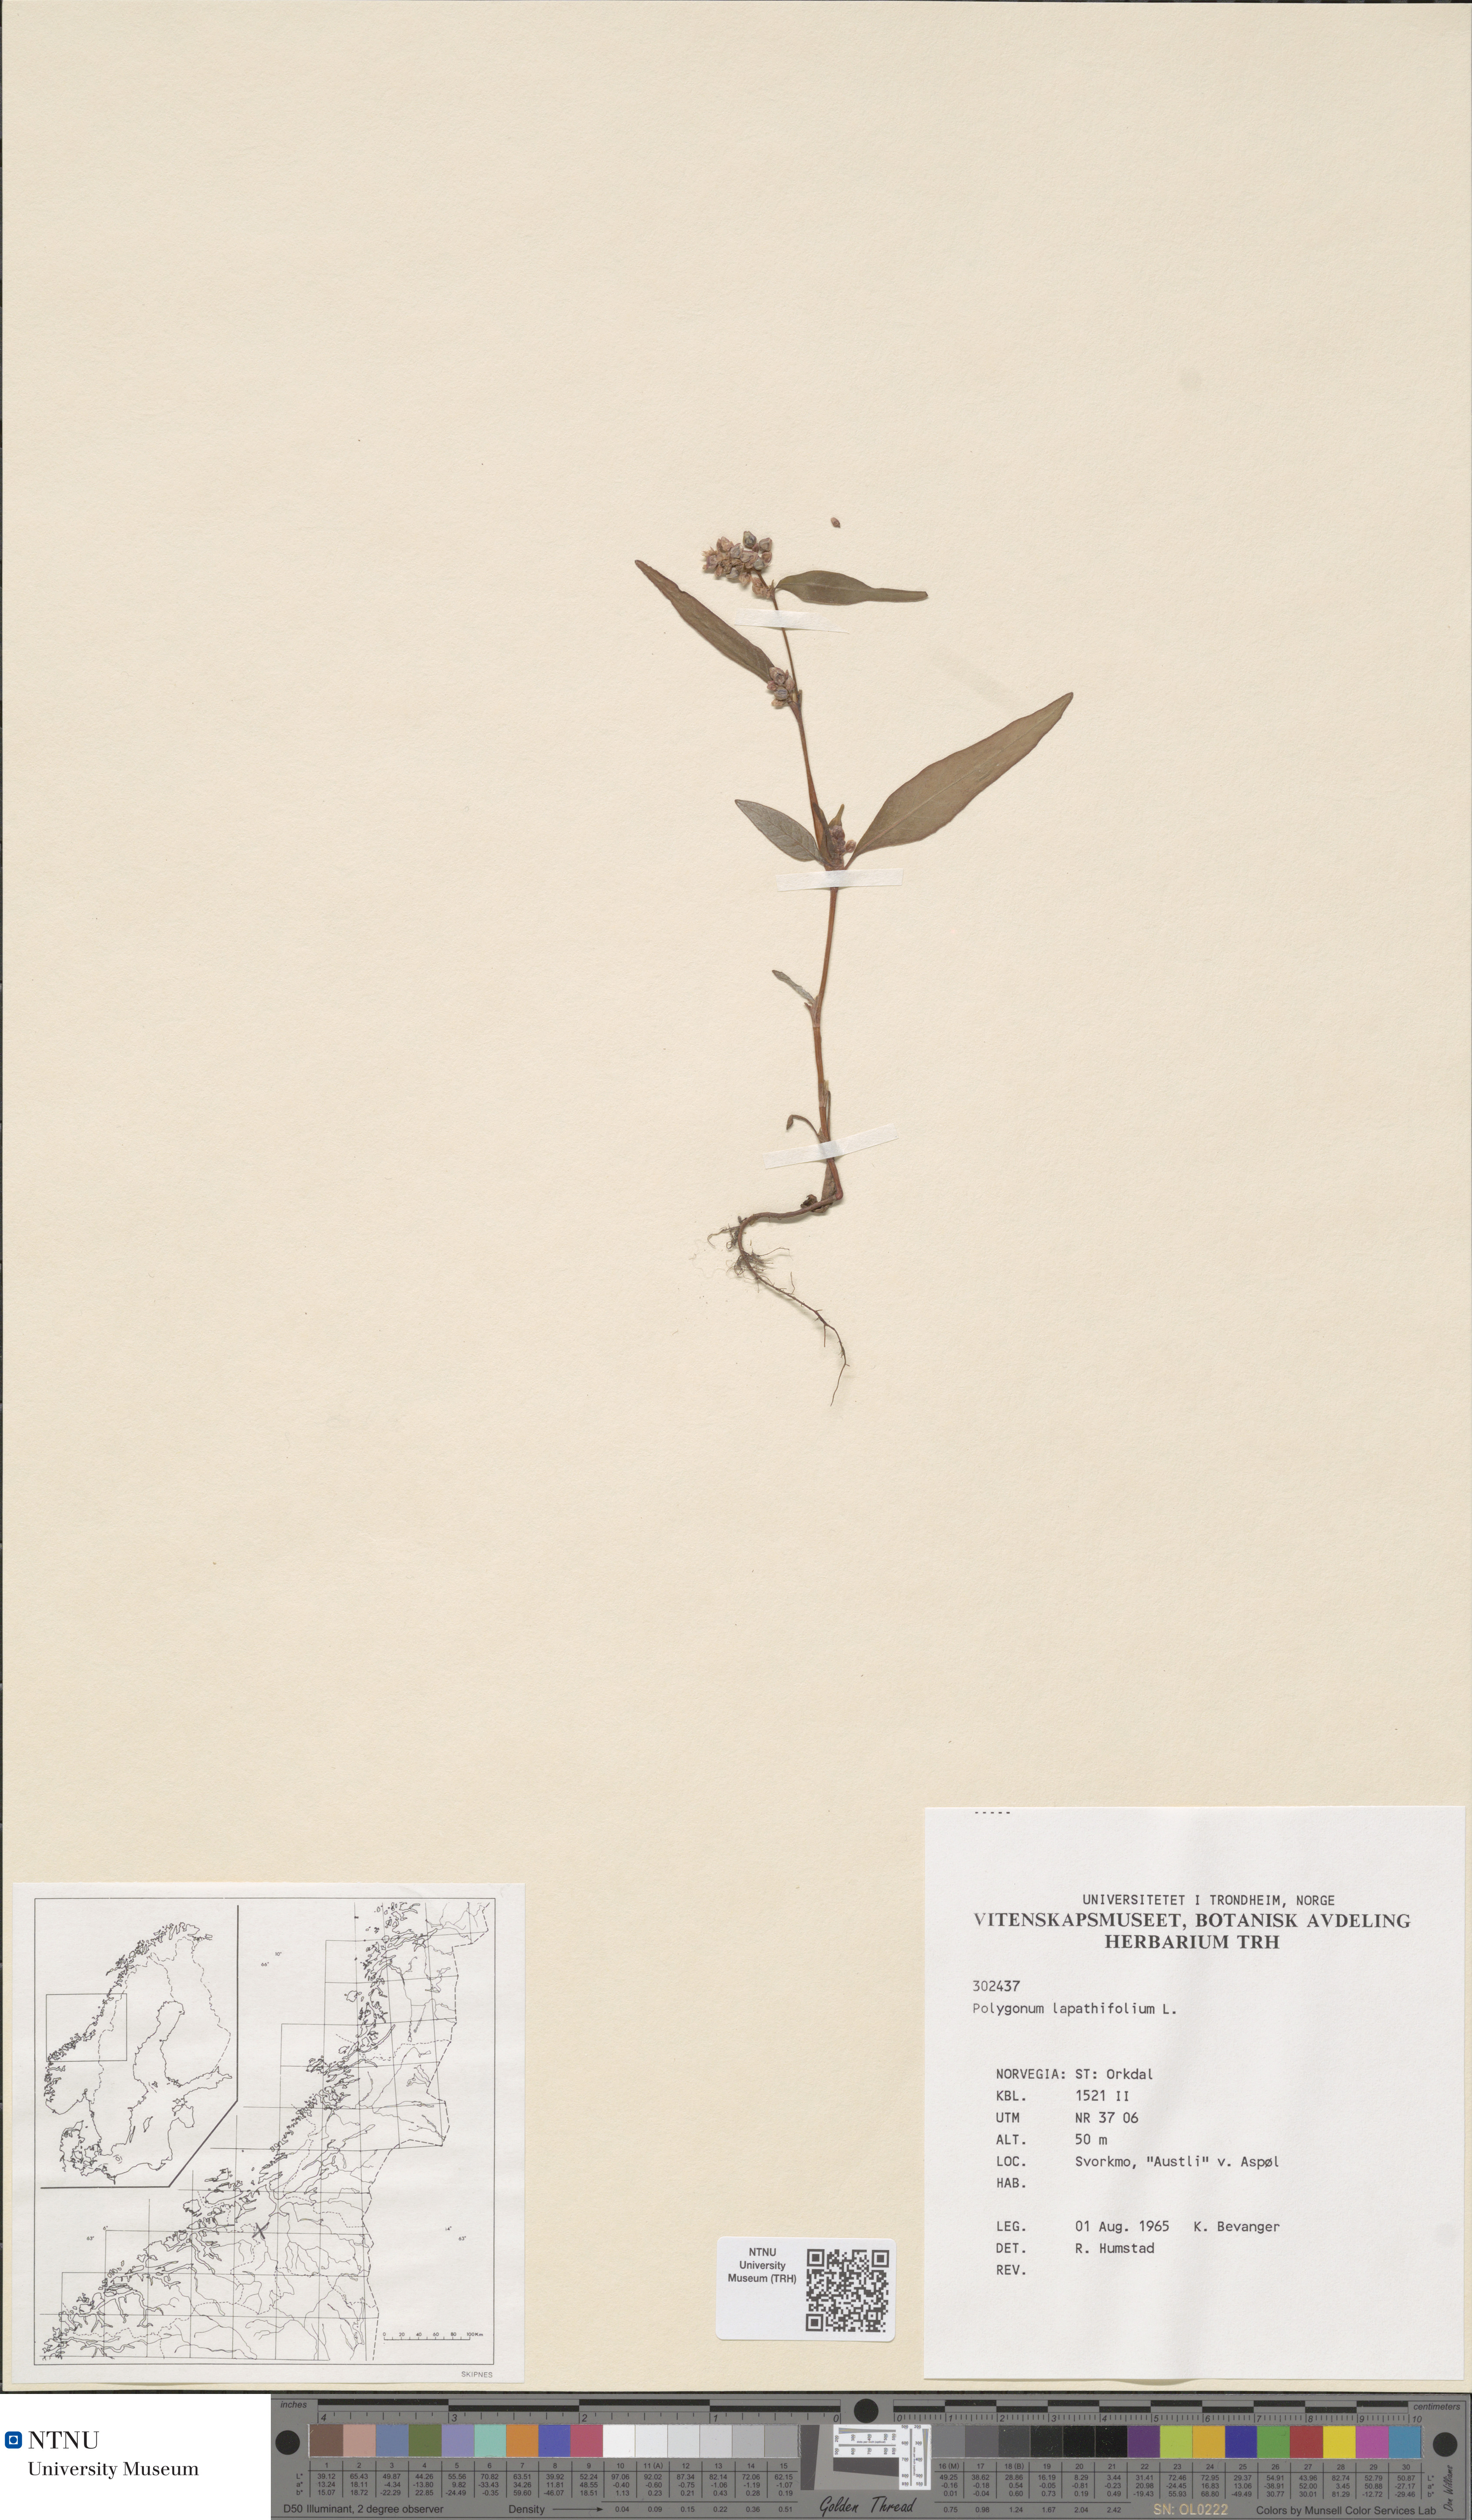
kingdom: Plantae
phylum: Tracheophyta
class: Magnoliopsida
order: Caryophyllales
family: Polygonaceae
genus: Persicaria
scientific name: Persicaria lapathifolia
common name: Curlytop knotweed
